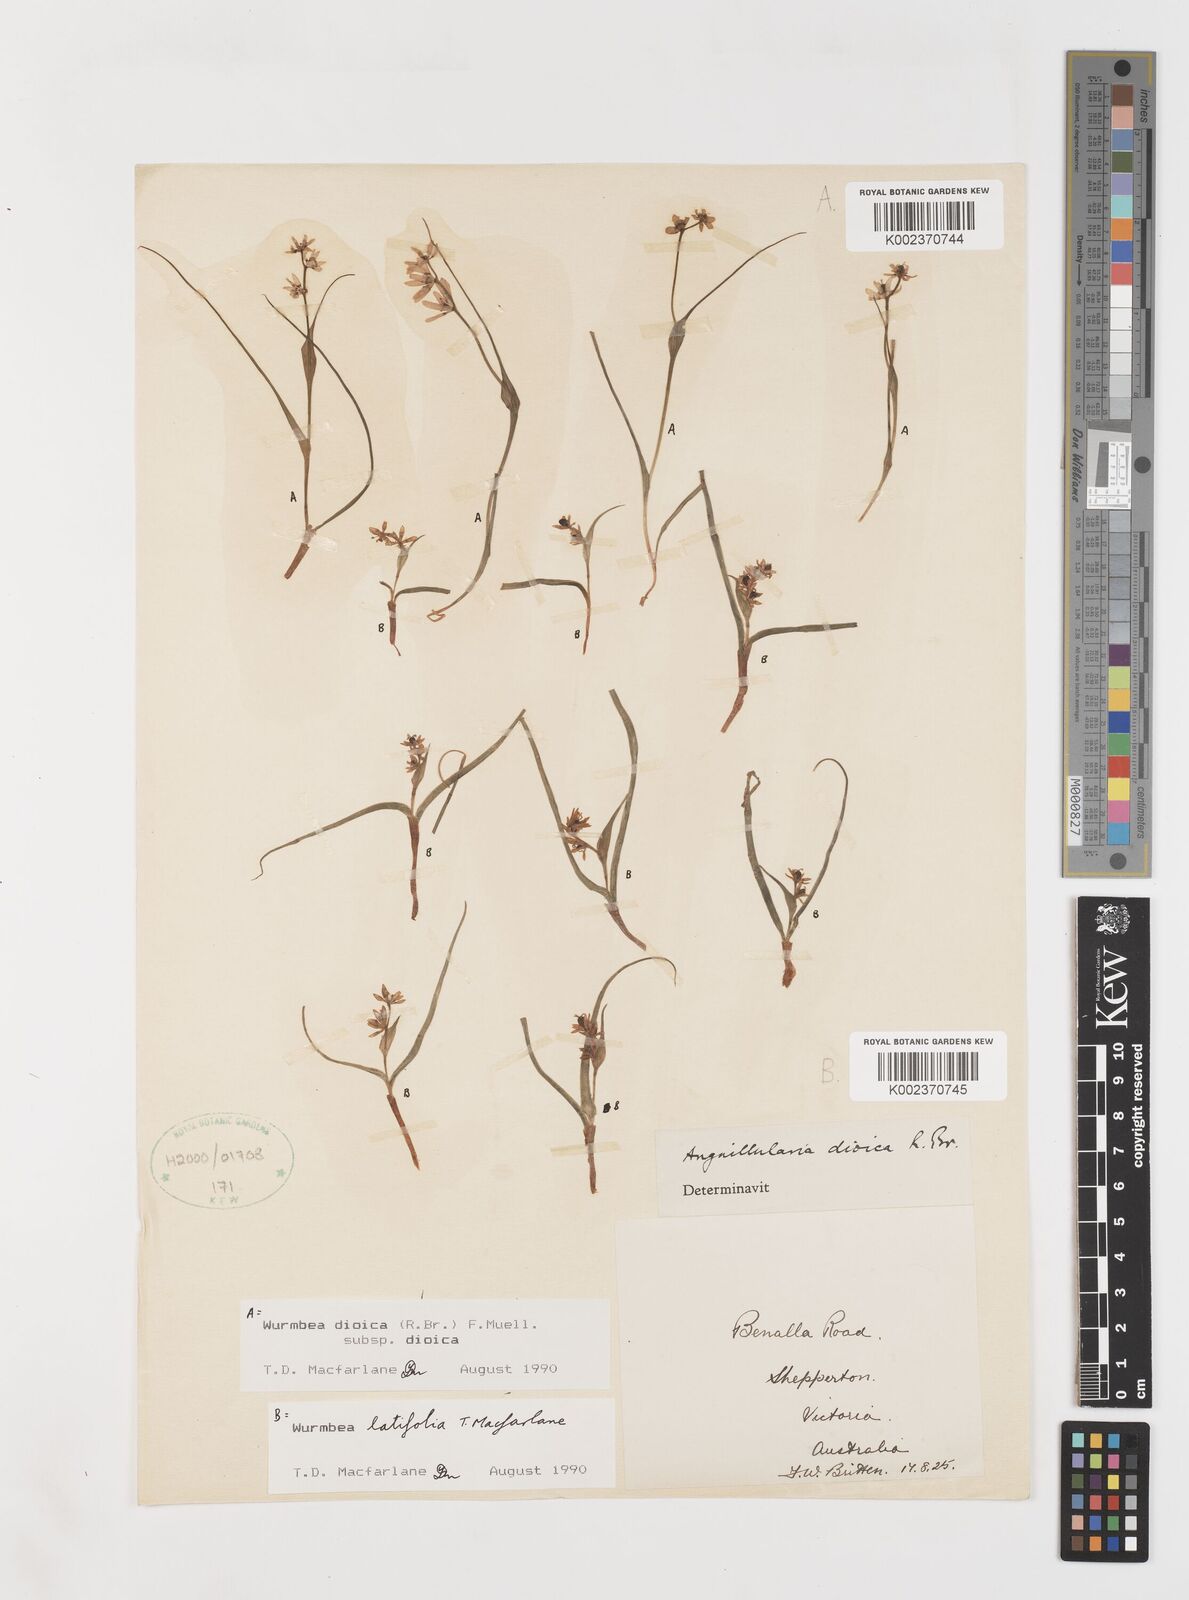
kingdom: Plantae
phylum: Tracheophyta
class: Liliopsida
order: Liliales
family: Colchicaceae
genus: Wurmbea
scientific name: Wurmbea latifolia
